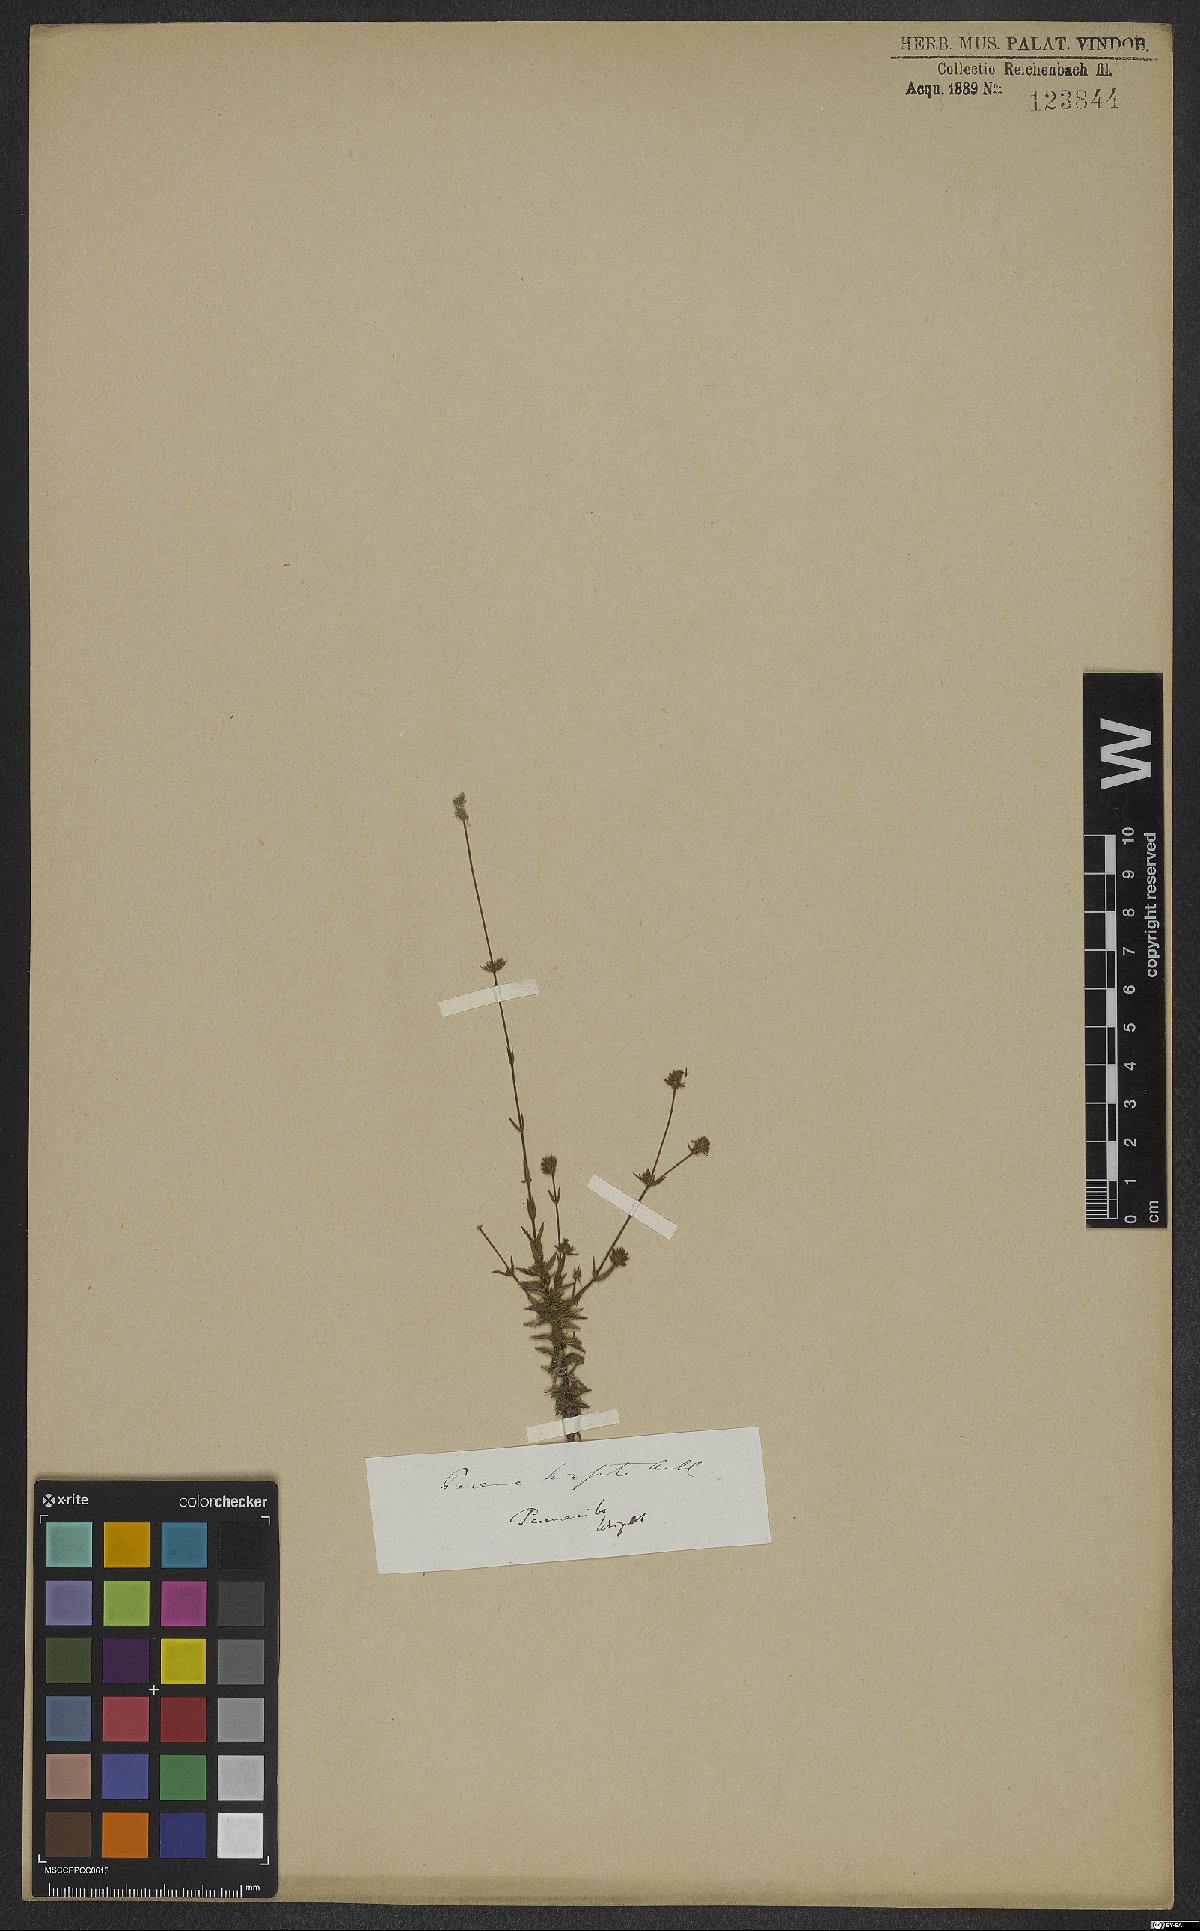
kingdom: Plantae
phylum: Tracheophyta
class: Magnoliopsida
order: Gentianales
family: Rubiaceae
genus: Perama
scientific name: Perama hirsuta
